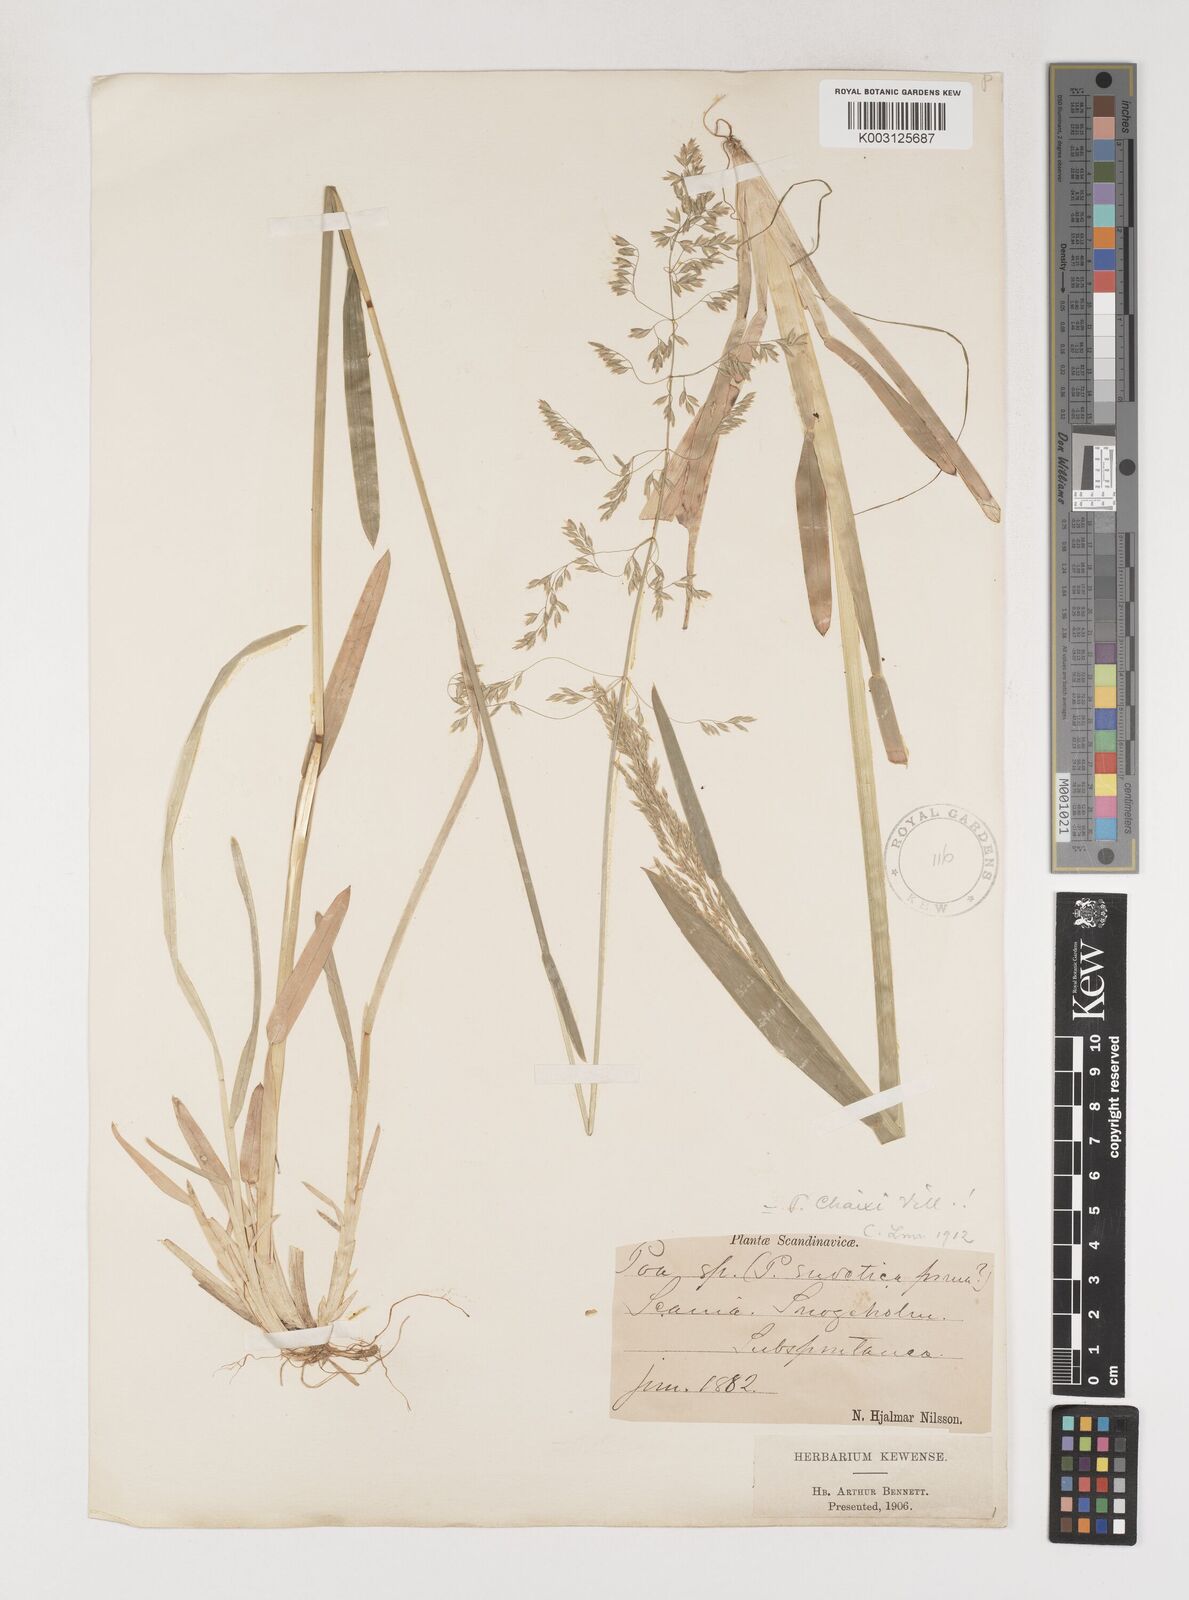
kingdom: Plantae
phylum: Tracheophyta
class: Liliopsida
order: Poales
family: Poaceae
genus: Poa
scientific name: Poa chaixii
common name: Broad-leaved meadow-grass
